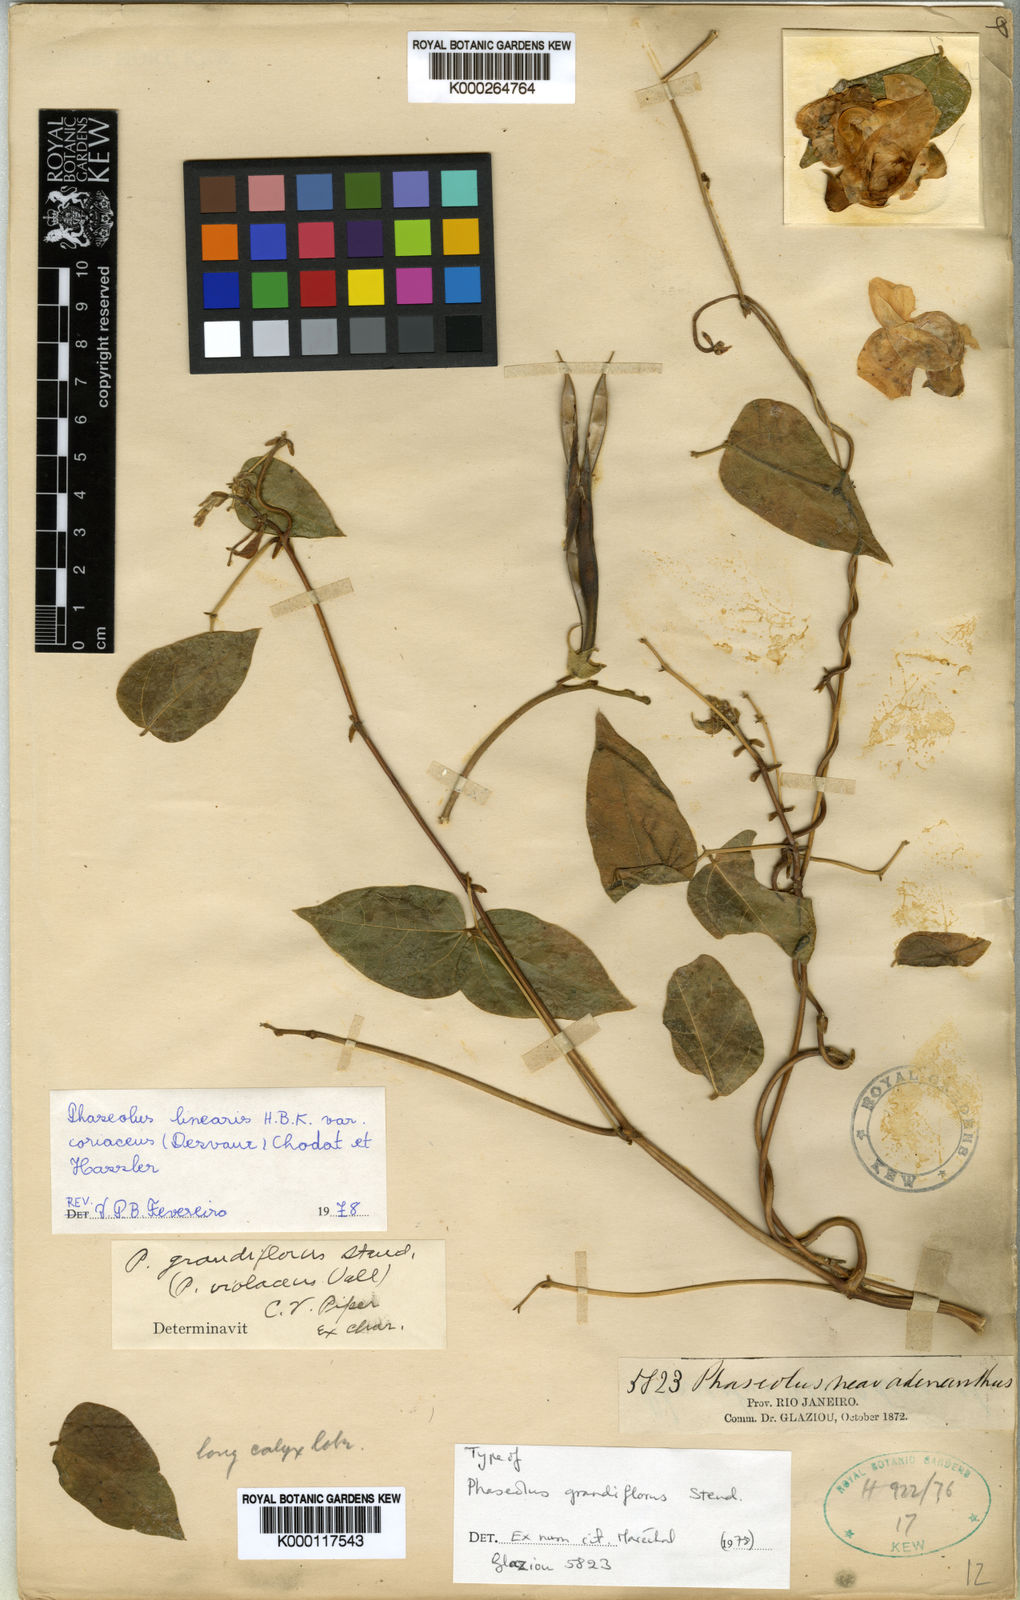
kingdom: Plantae
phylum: Tracheophyta
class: Magnoliopsida
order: Fabales
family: Fabaceae
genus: Helicotropis
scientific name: Helicotropis linearis
